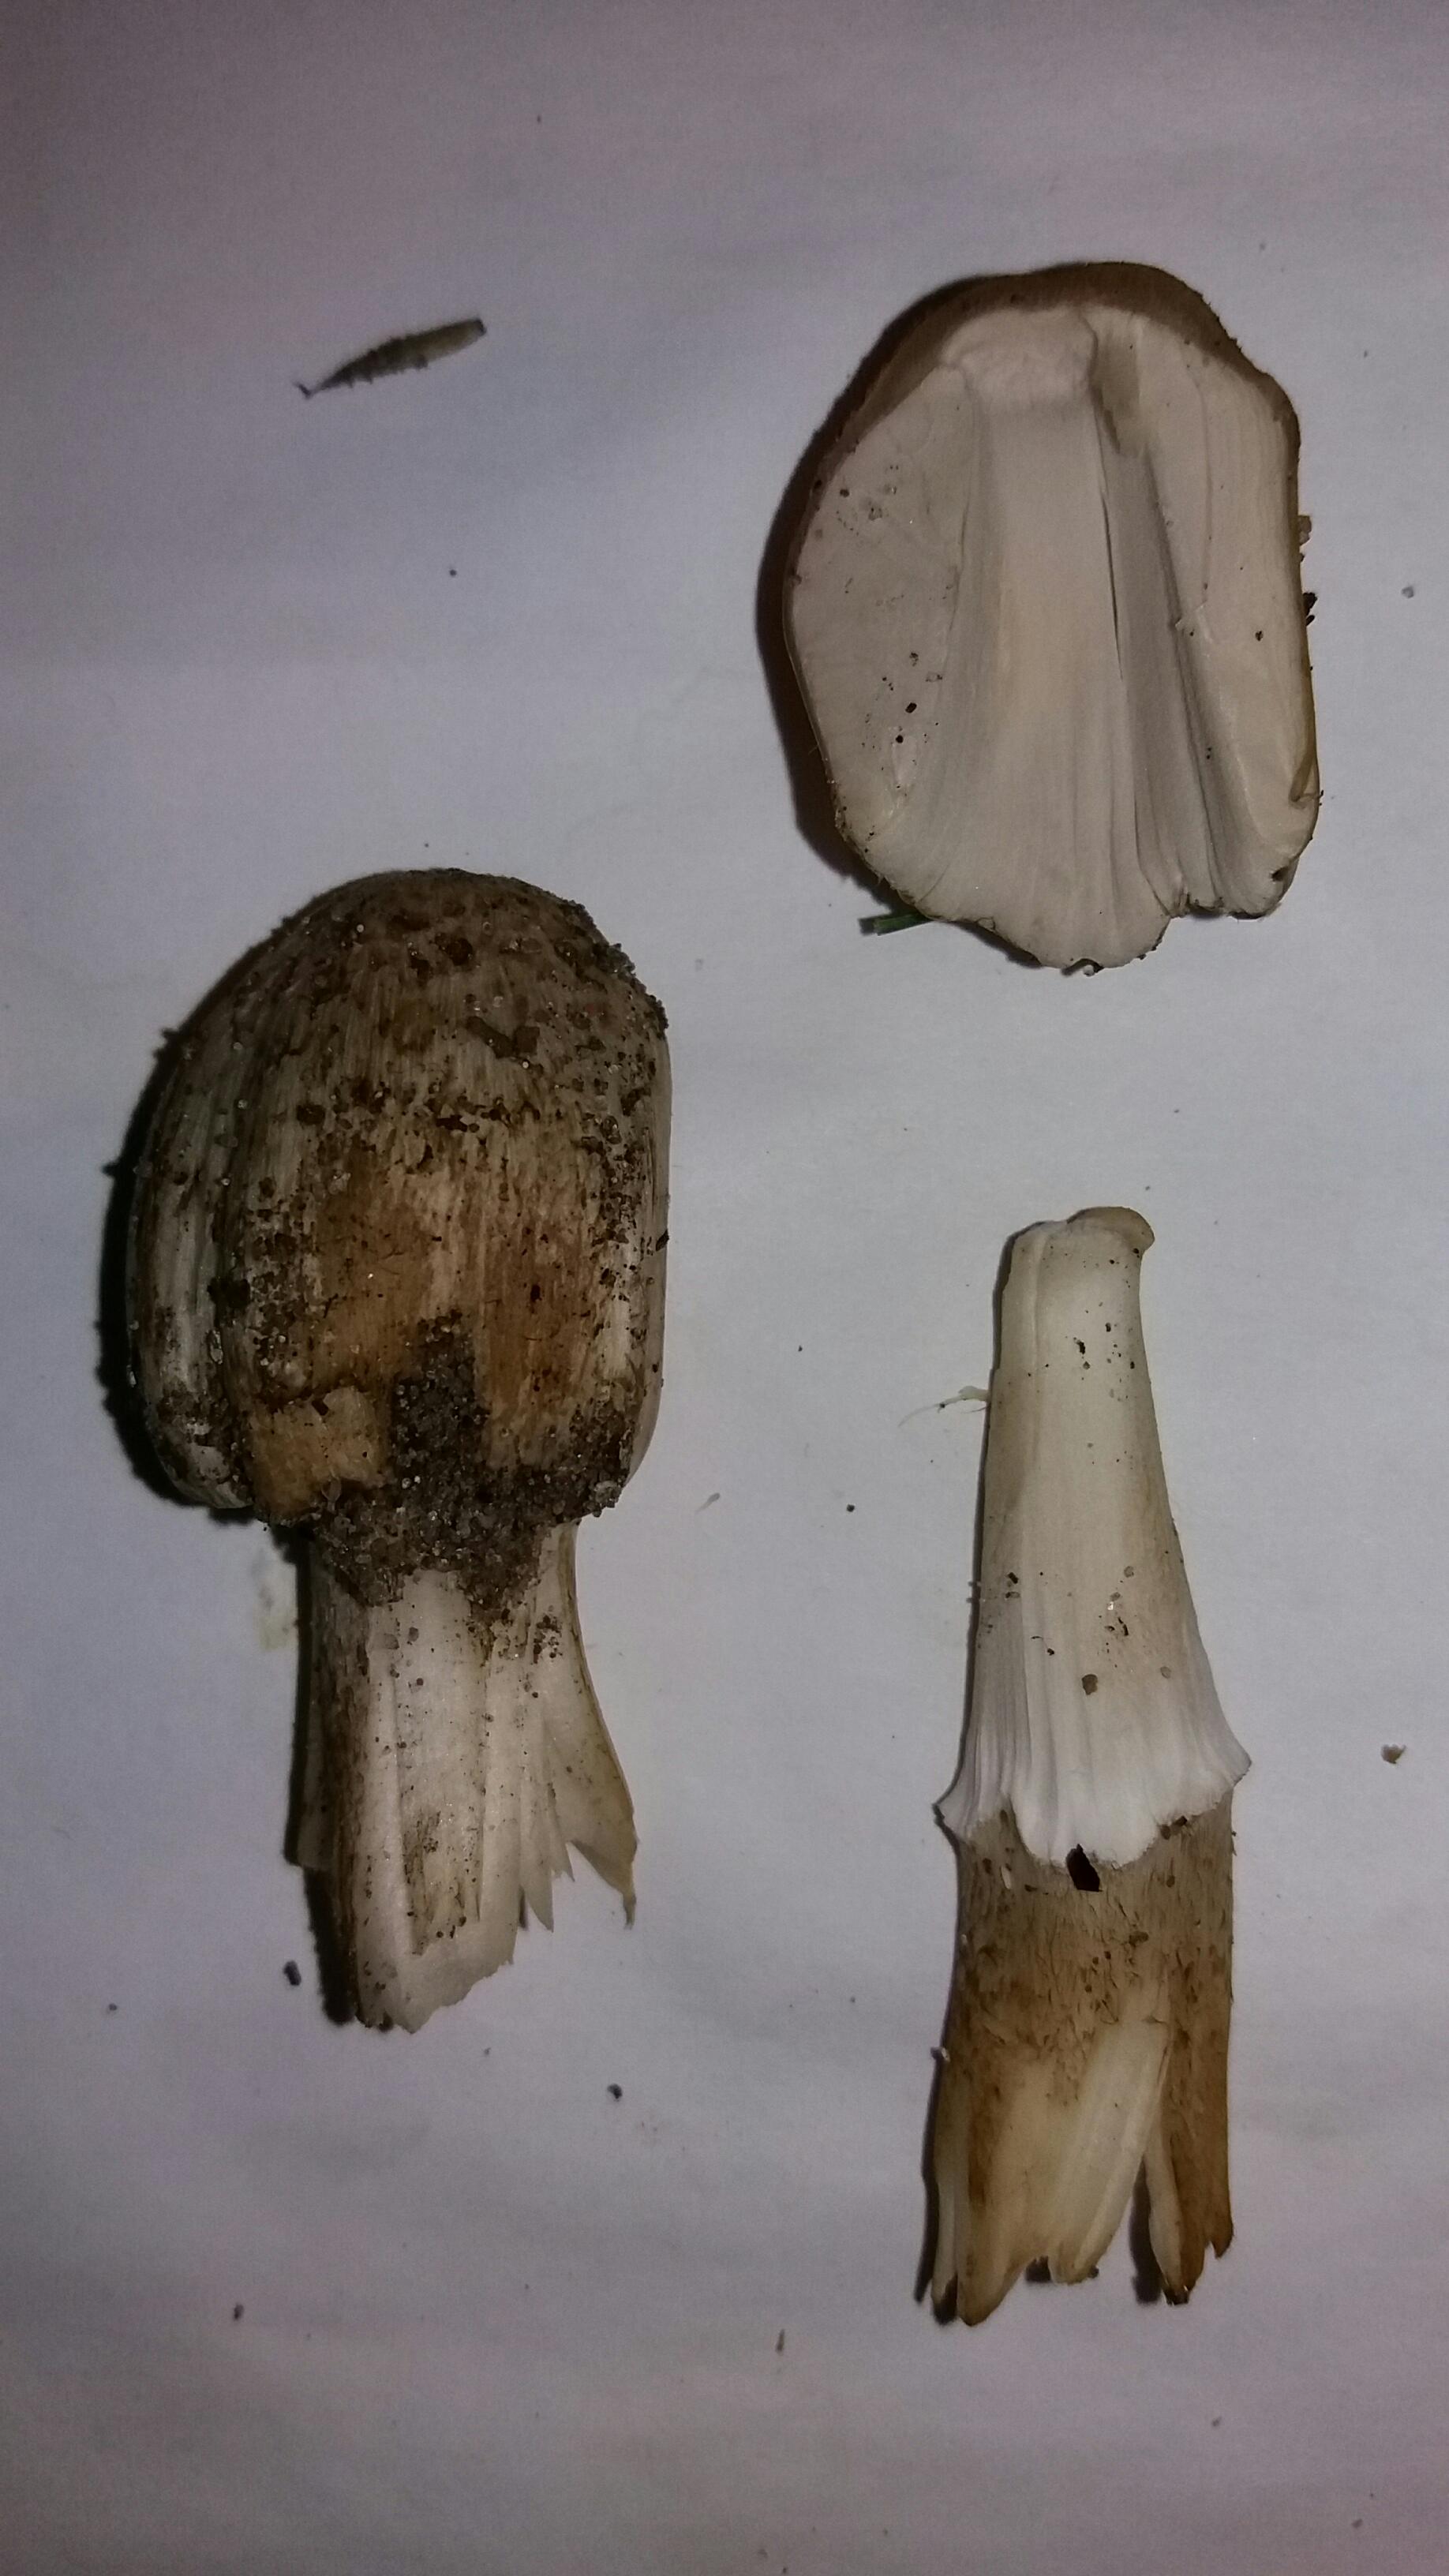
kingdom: Fungi
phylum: Basidiomycota
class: Agaricomycetes
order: Agaricales
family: Psathyrellaceae
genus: Coprinopsis
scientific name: Coprinopsis atramentaria
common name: almindelig blækhat
